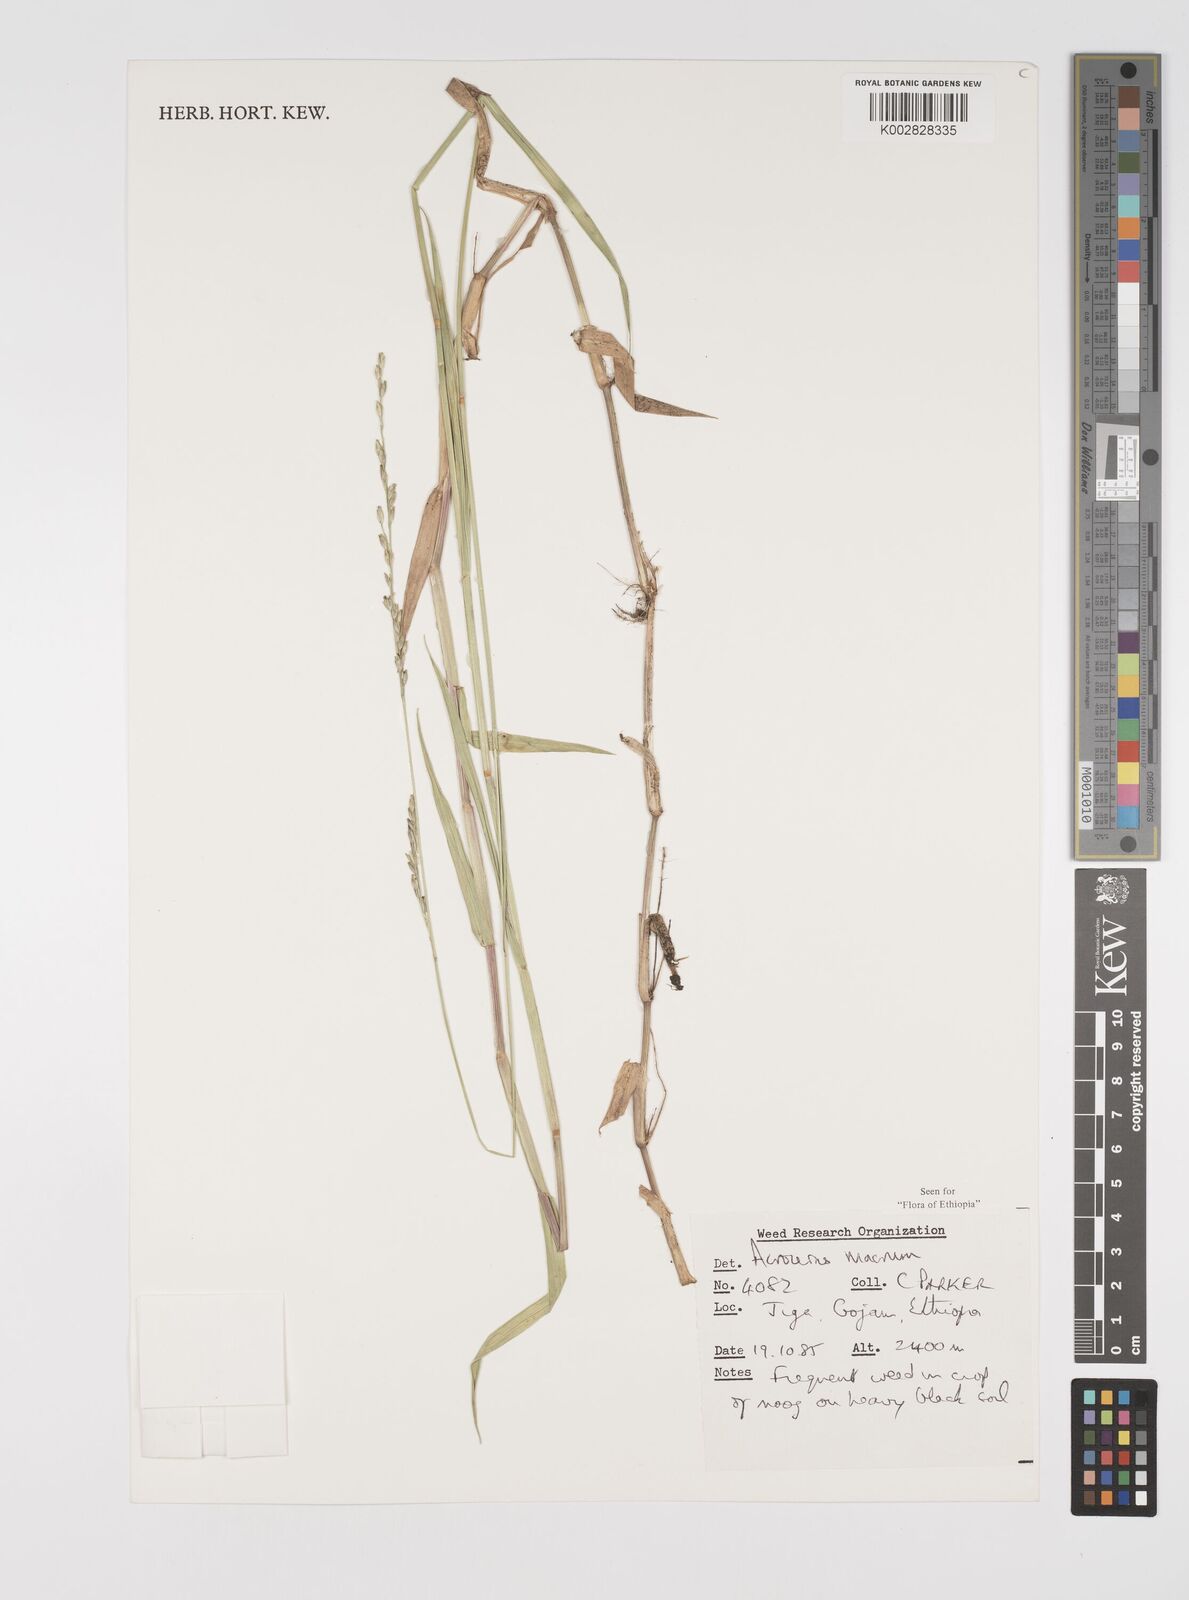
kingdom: Plantae
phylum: Tracheophyta
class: Liliopsida
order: Poales
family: Poaceae
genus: Acroceras
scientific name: Acroceras macrum
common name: Nyl grass
